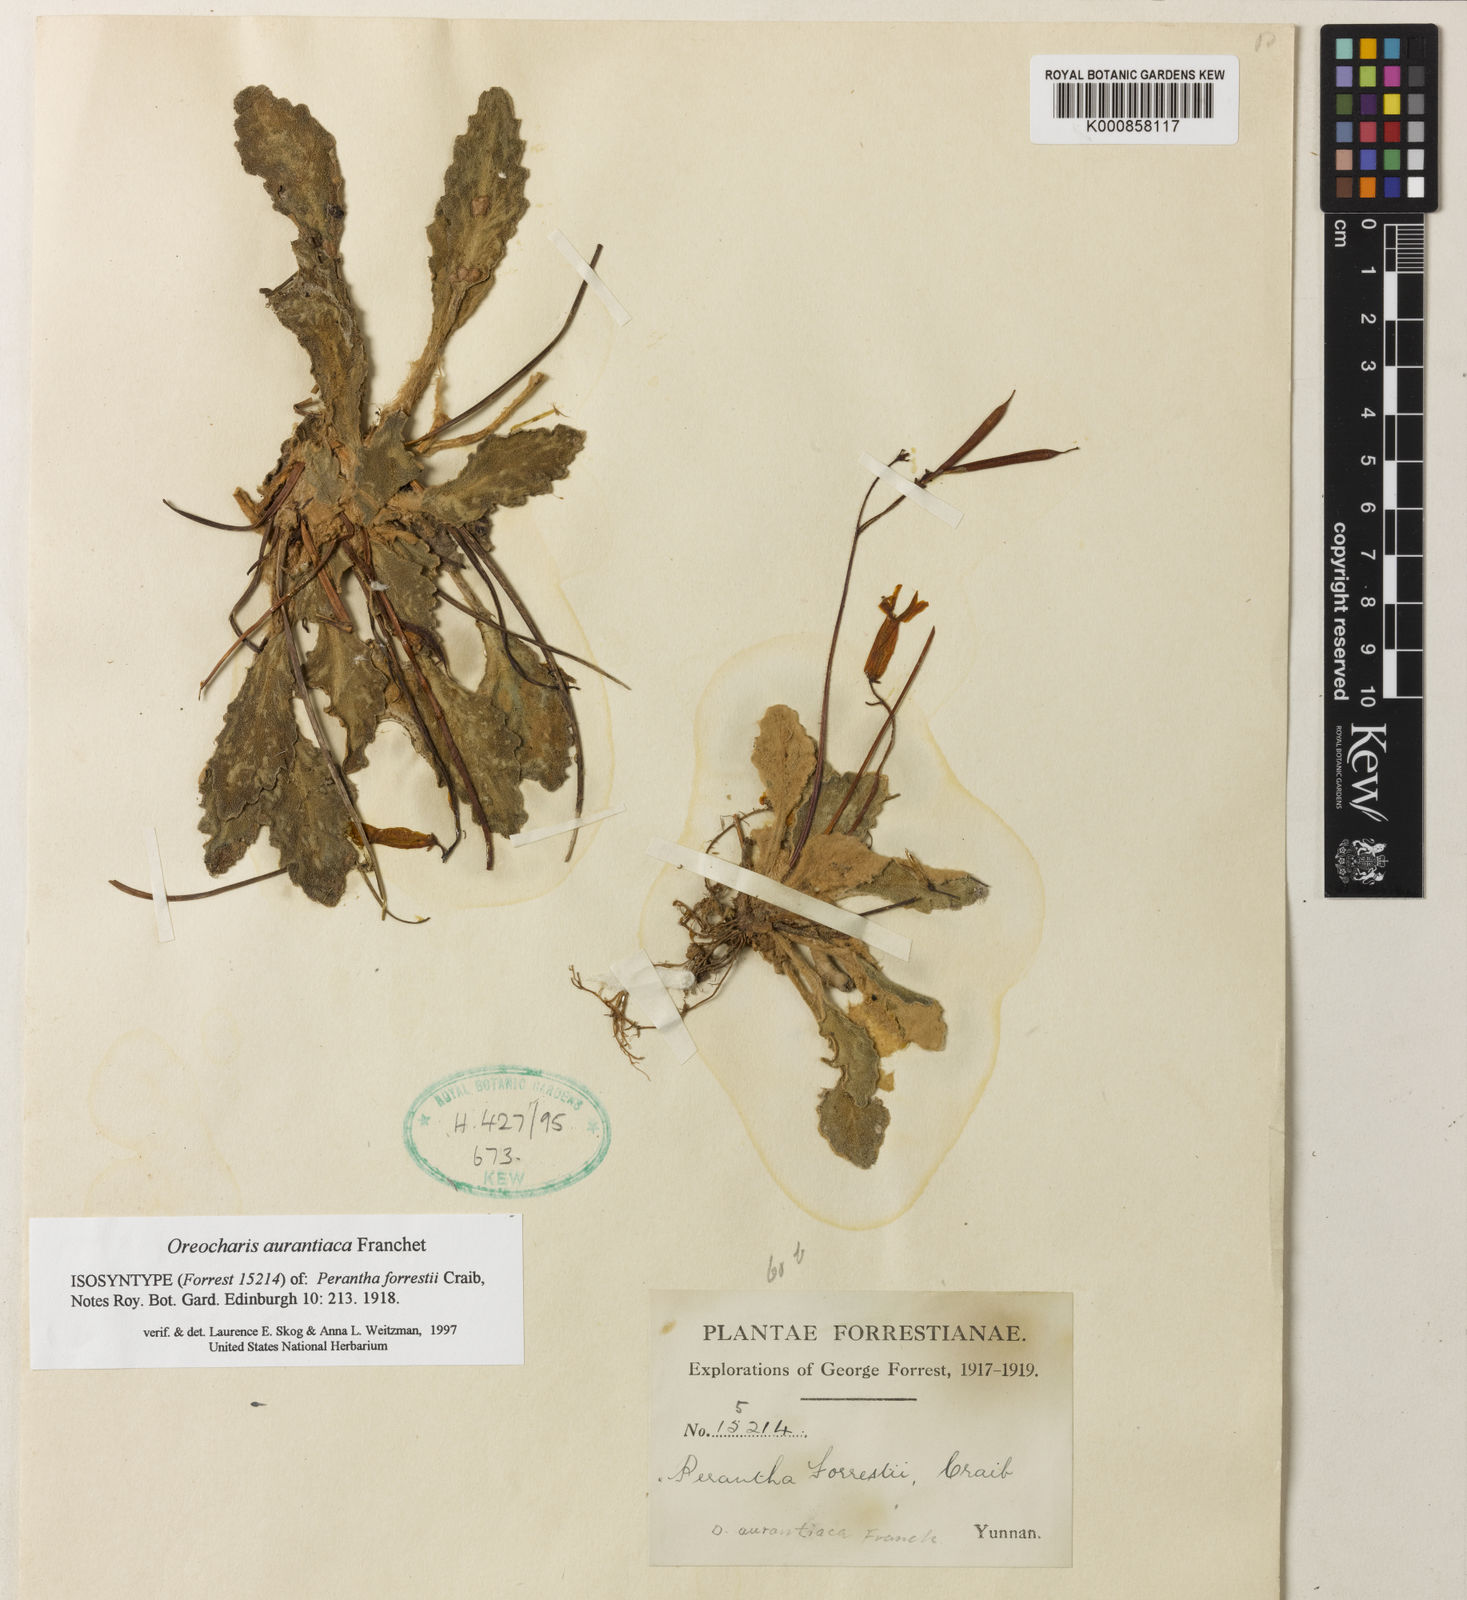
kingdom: Plantae
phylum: Tracheophyta
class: Magnoliopsida
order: Lamiales
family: Gesneriaceae
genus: Oreocharis
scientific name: Oreocharis
